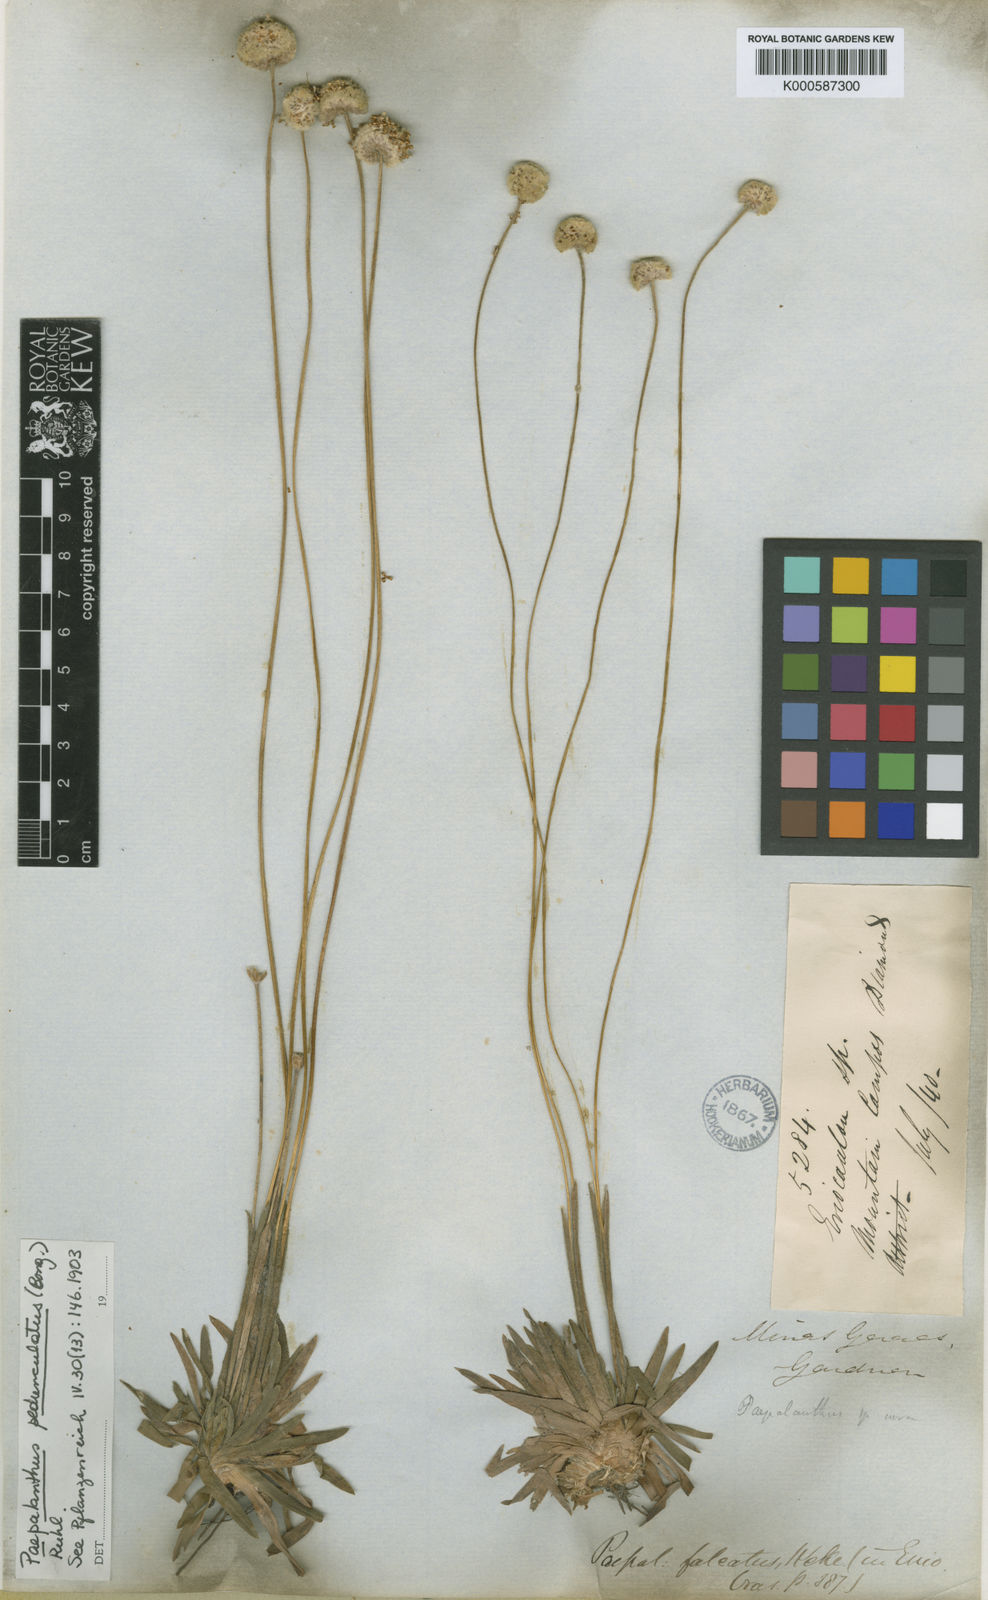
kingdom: Plantae
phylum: Tracheophyta
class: Liliopsida
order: Poales
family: Eriocaulaceae
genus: Paepalanthus
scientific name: Paepalanthus pedunculatus
